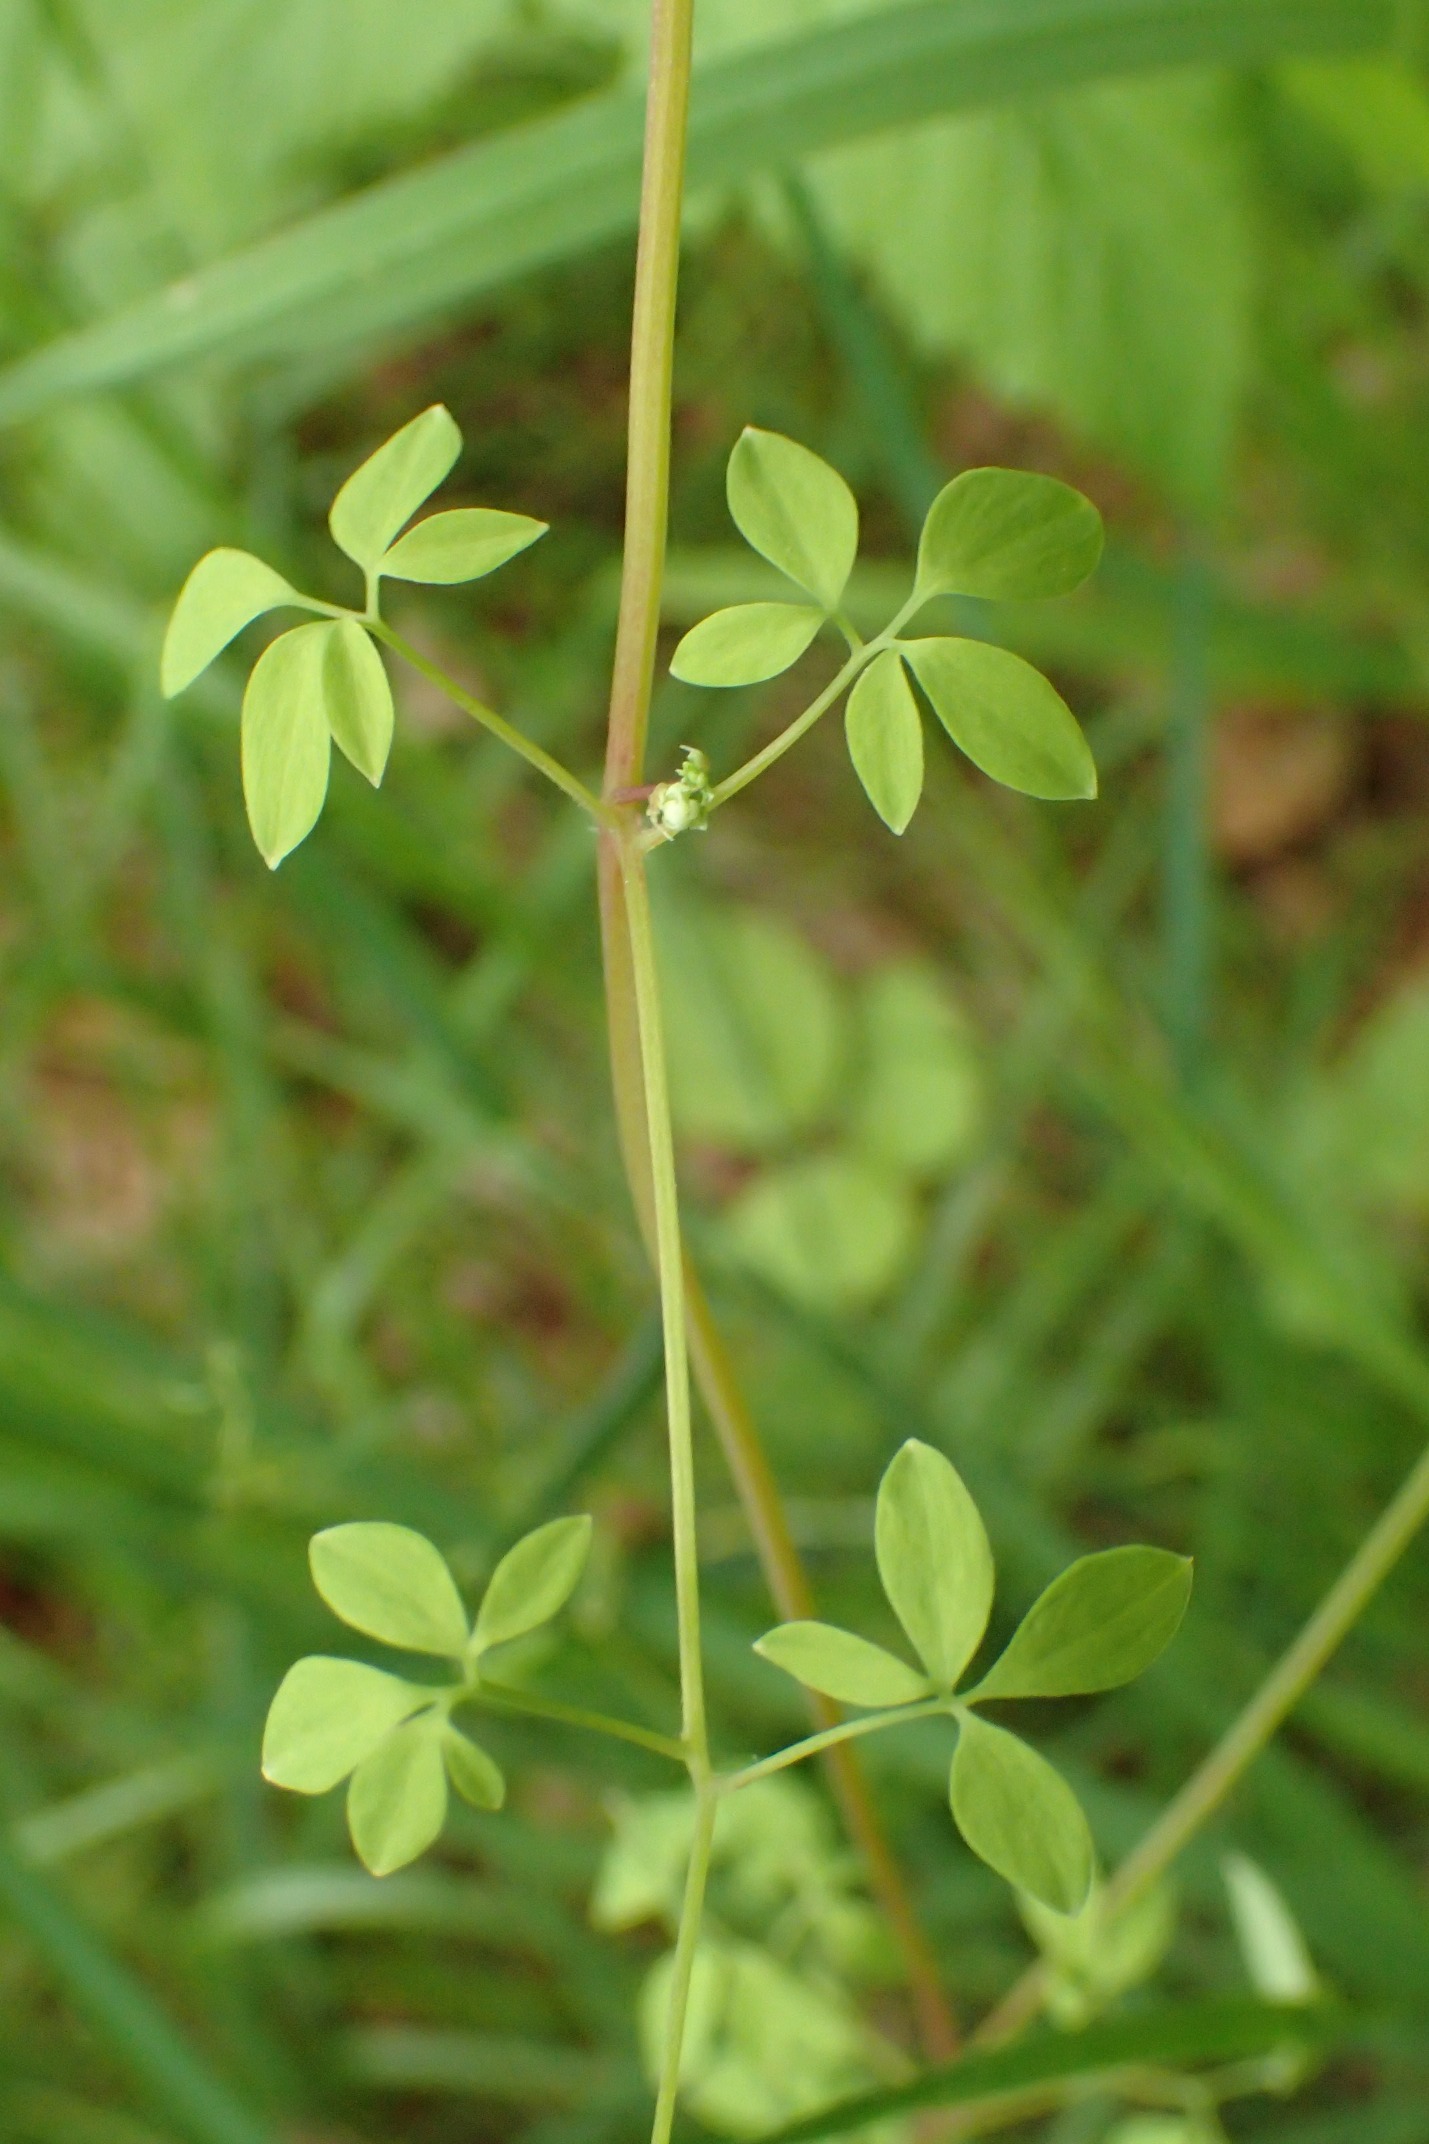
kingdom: Plantae
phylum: Tracheophyta
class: Magnoliopsida
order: Ranunculales
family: Papaveraceae
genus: Ceratocapnos
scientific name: Ceratocapnos claviculata
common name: Klatrende lærkespore
